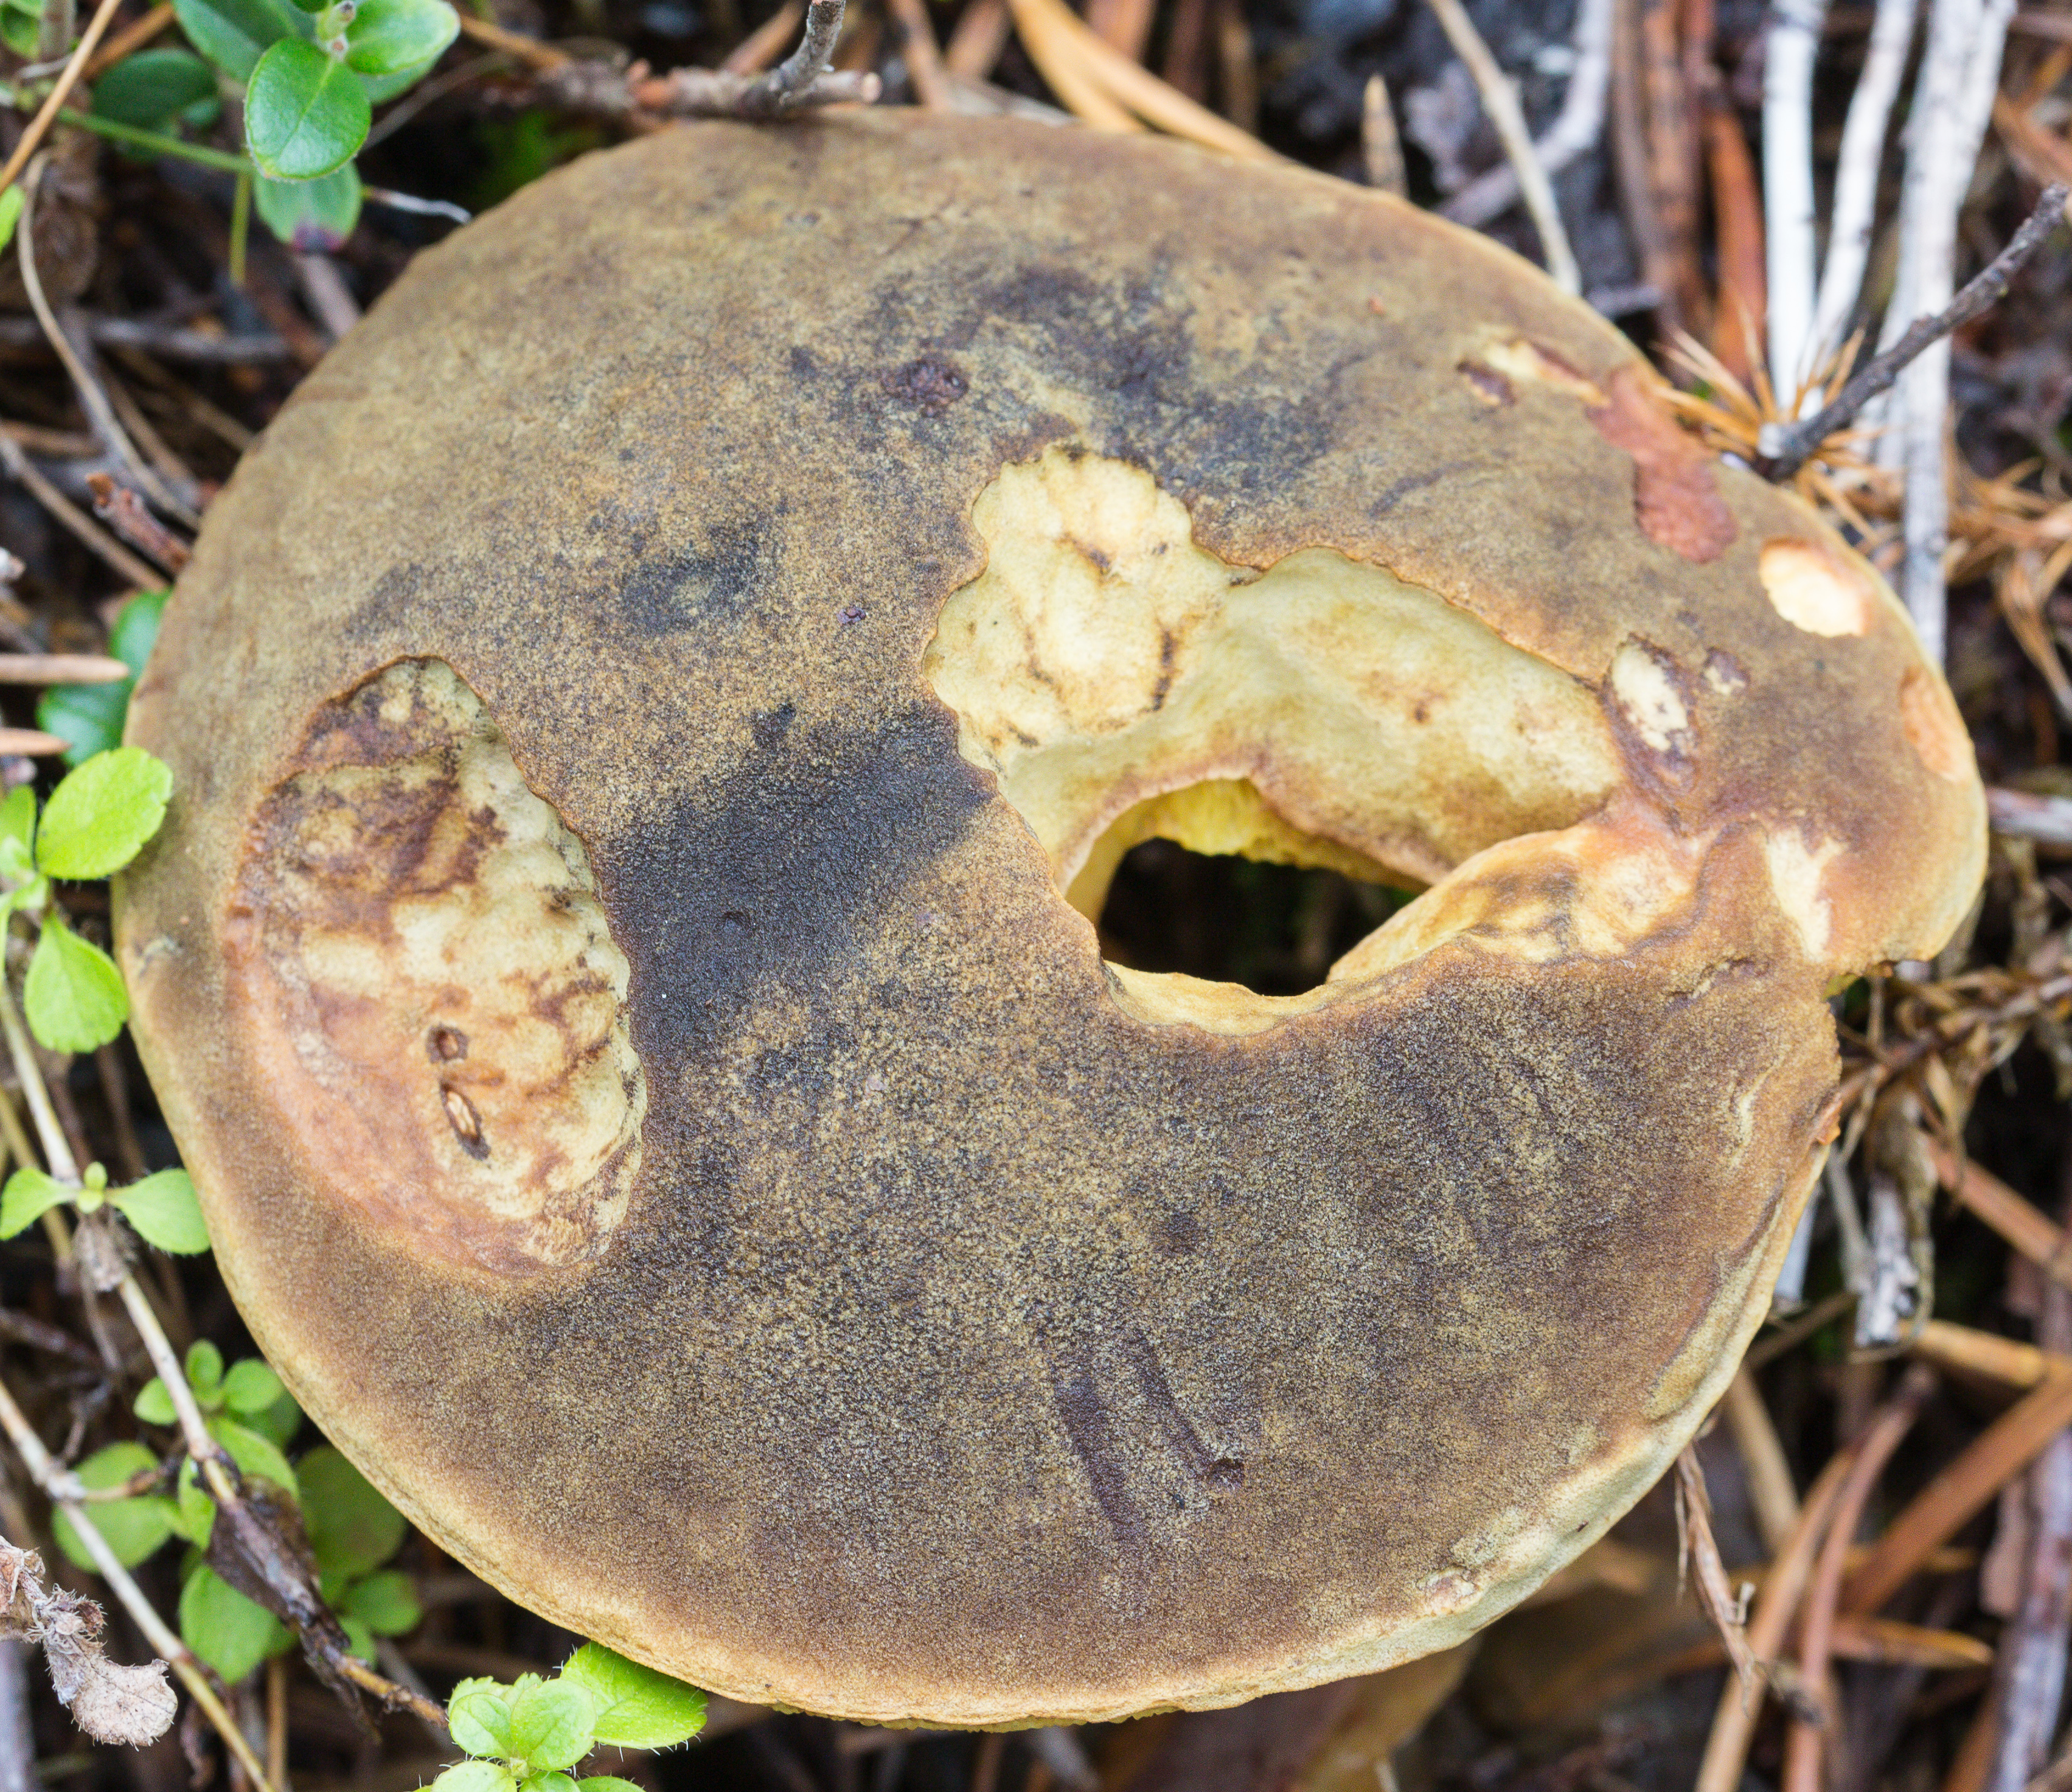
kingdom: Fungi
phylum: Basidiomycota
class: Agaricomycetes
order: Boletales
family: Boletaceae
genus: Xerocomus
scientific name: Xerocomus subtomentosus
